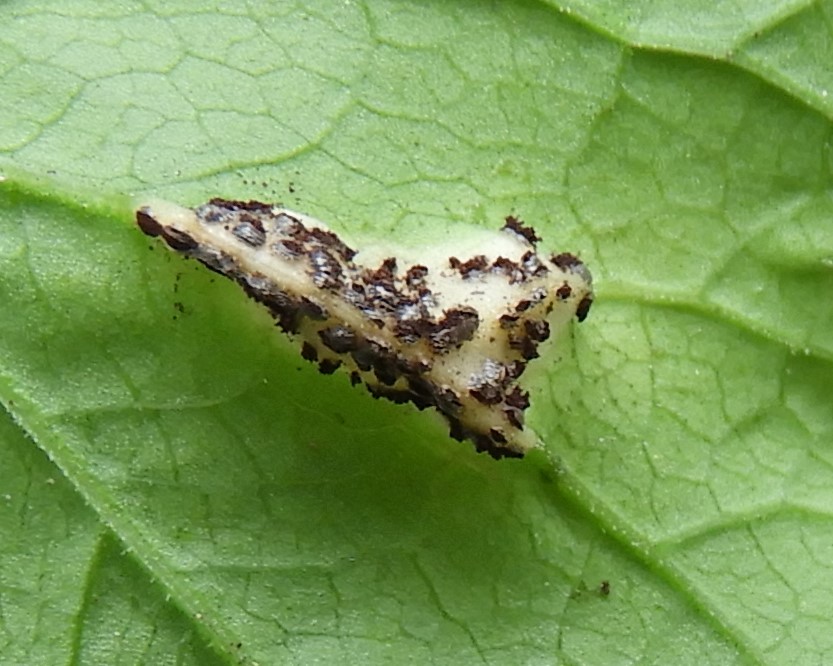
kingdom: Fungi
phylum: Basidiomycota
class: Pucciniomycetes
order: Pucciniales
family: Pucciniaceae
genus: Puccinia
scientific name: Puccinia
